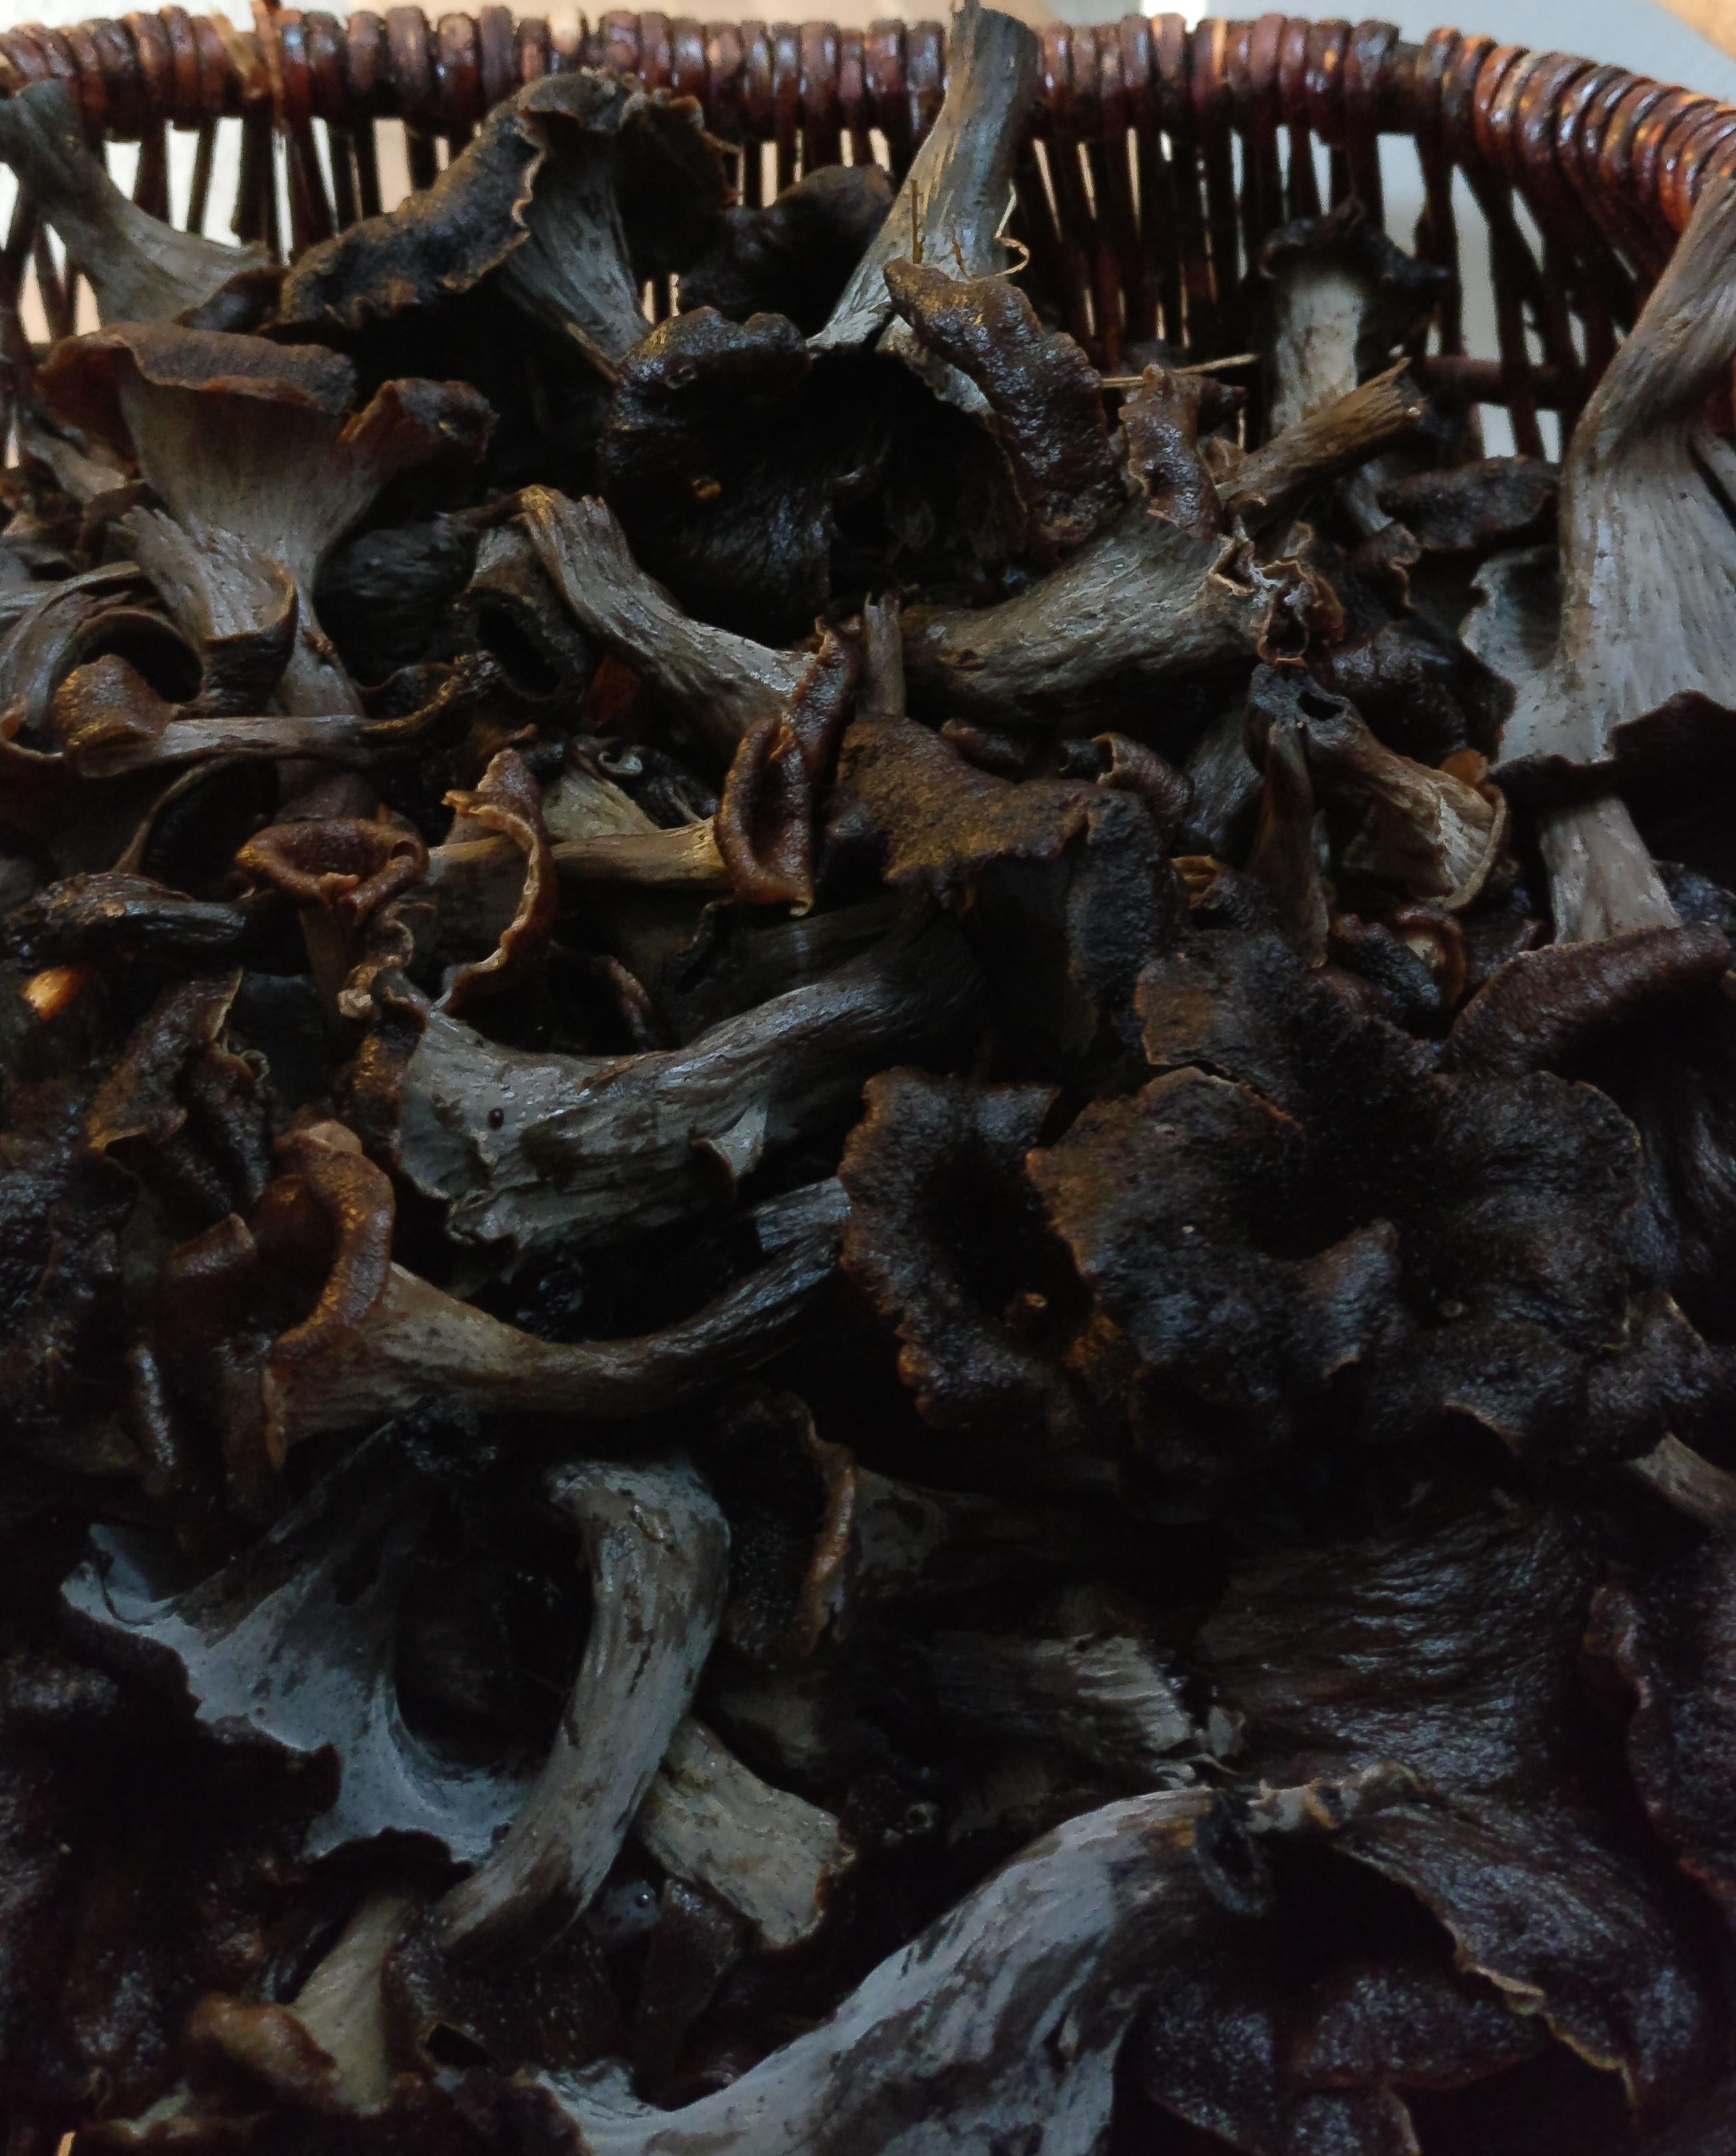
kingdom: Fungi
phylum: Basidiomycota
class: Agaricomycetes
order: Cantharellales
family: Hydnaceae
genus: Craterellus
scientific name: Craterellus cornucopioides
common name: trompetsvamp
